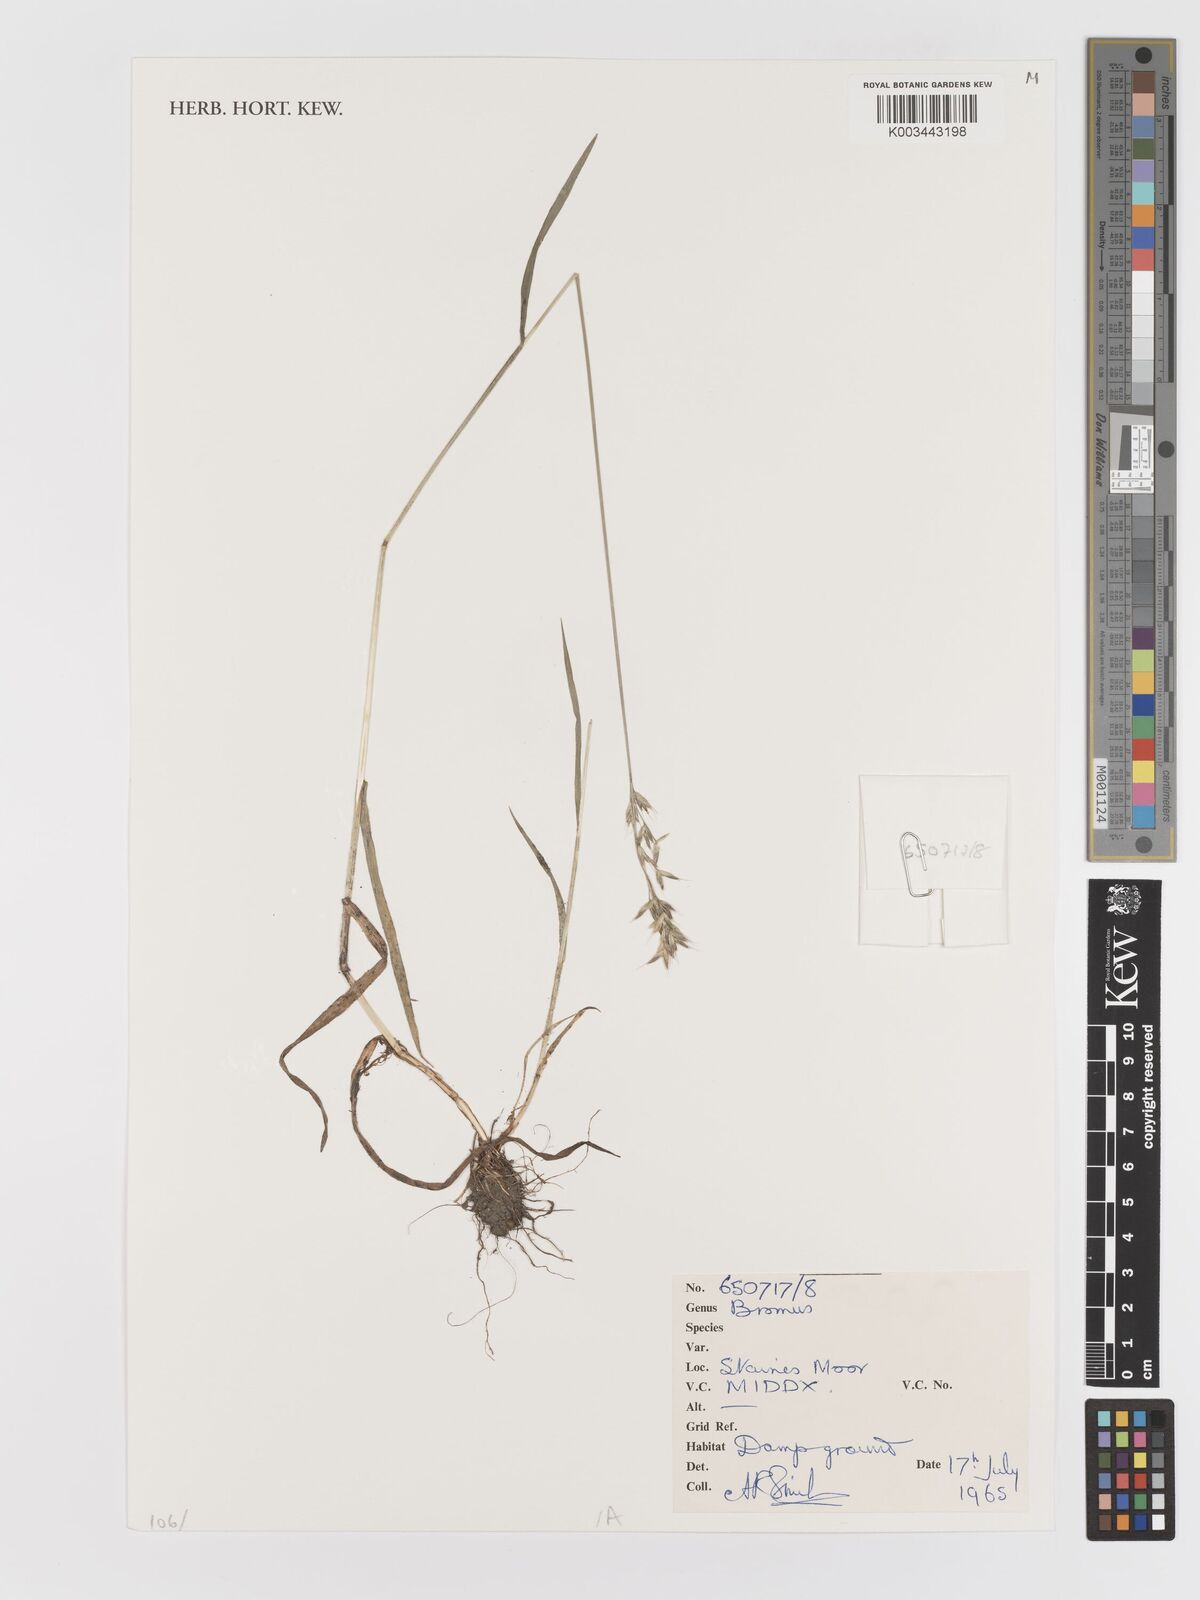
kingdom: Plantae
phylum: Tracheophyta
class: Liliopsida
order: Poales
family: Poaceae
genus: Bromus
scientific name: Bromus
